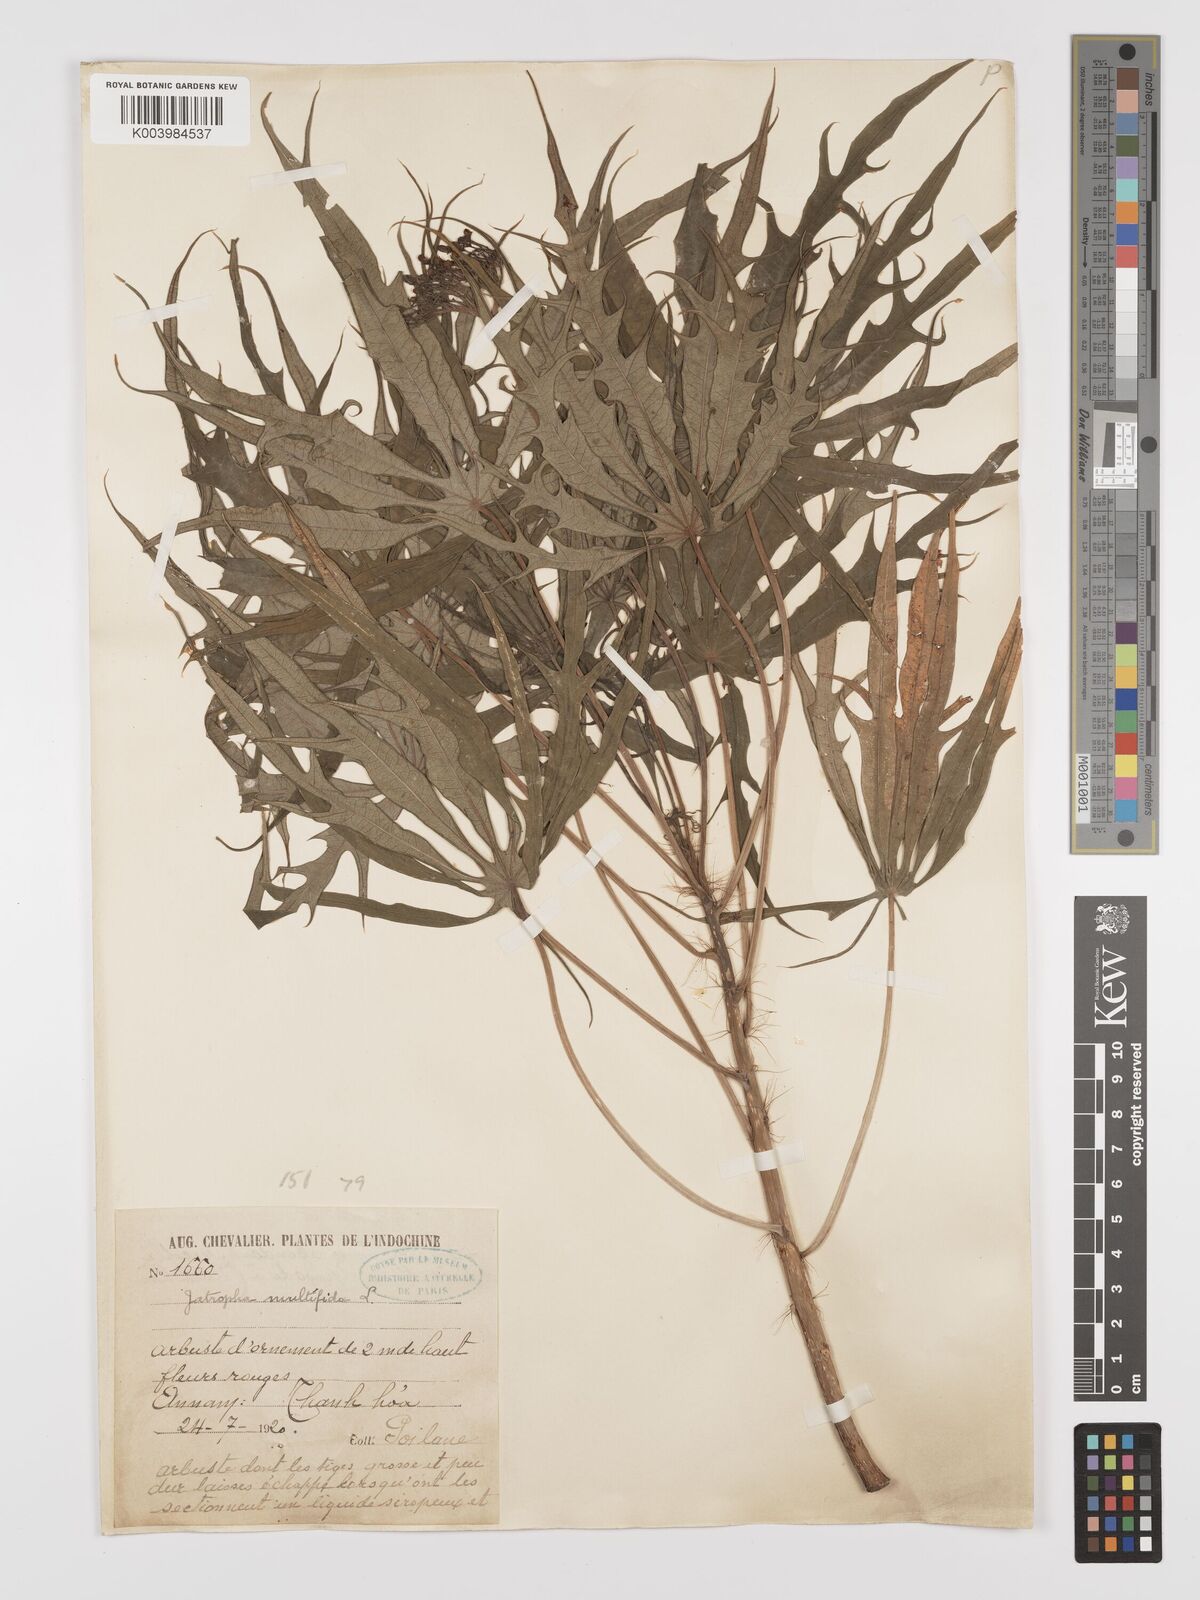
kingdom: Plantae
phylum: Tracheophyta
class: Magnoliopsida
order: Malpighiales
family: Euphorbiaceae
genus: Jatropha
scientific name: Jatropha multifida
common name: Coralbush
